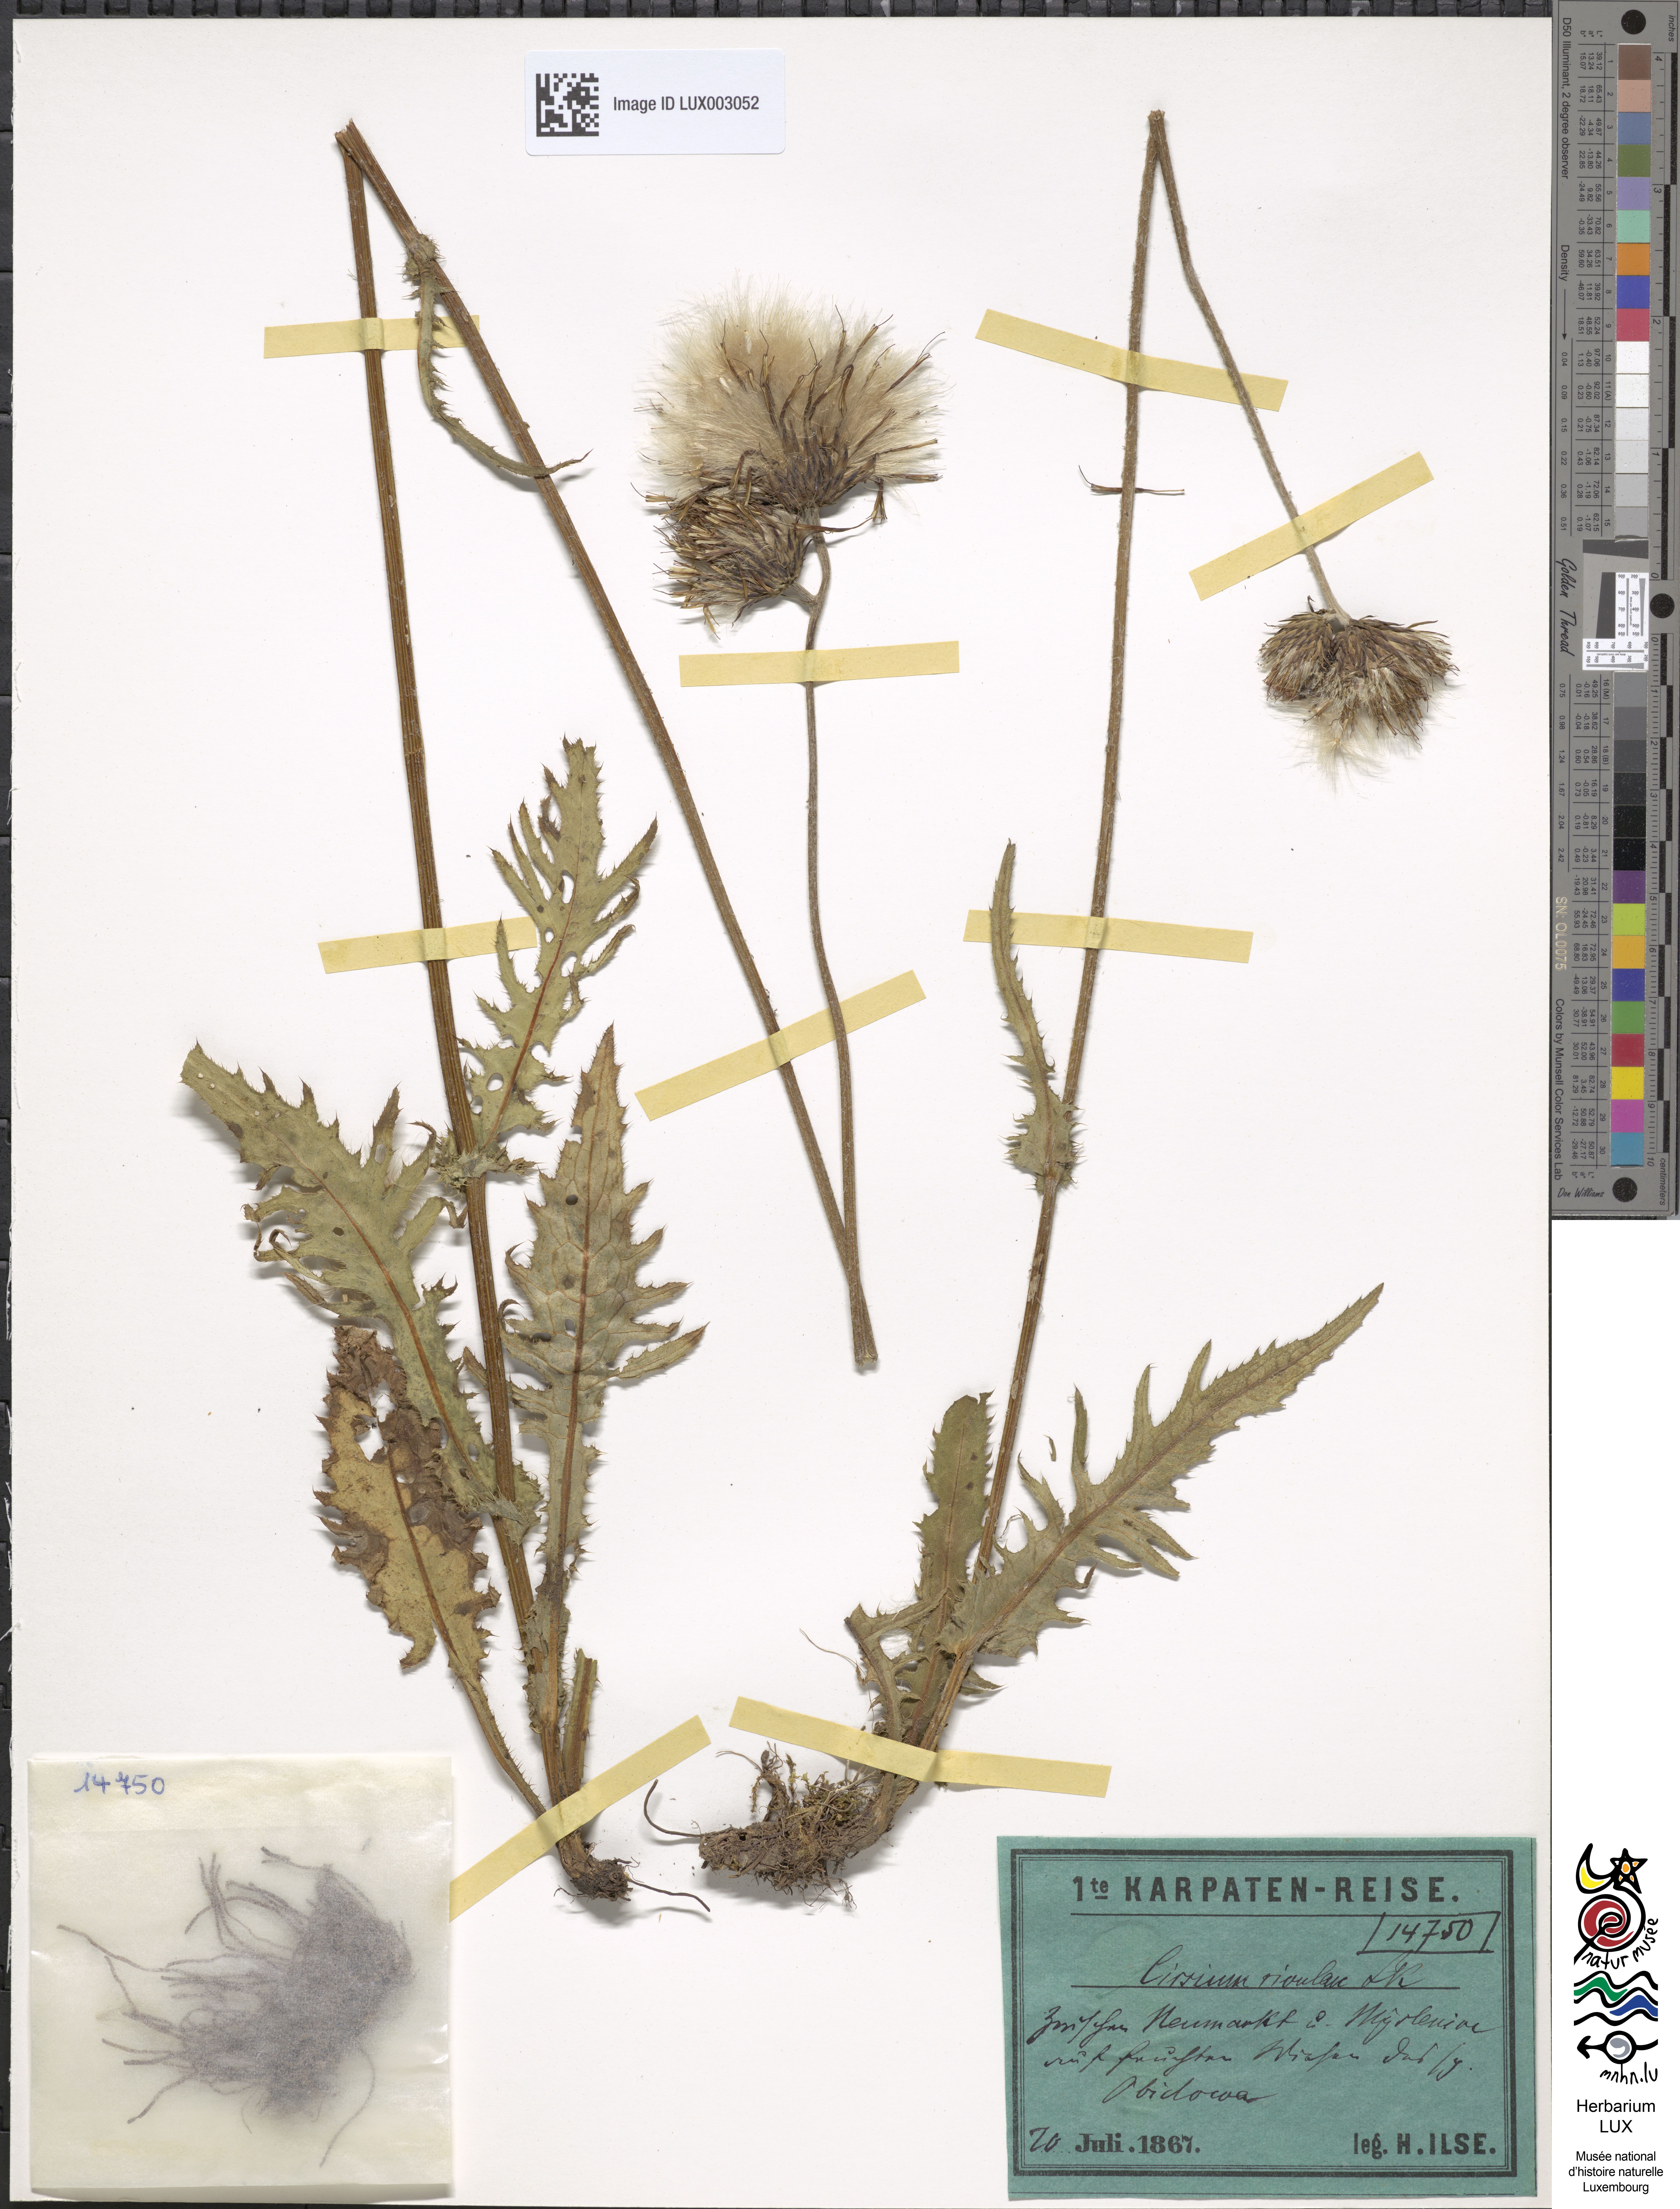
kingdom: Plantae
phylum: Tracheophyta
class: Magnoliopsida
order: Asterales
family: Asteraceae
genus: Cirsium
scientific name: Cirsium rivulare
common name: Brook thistle
